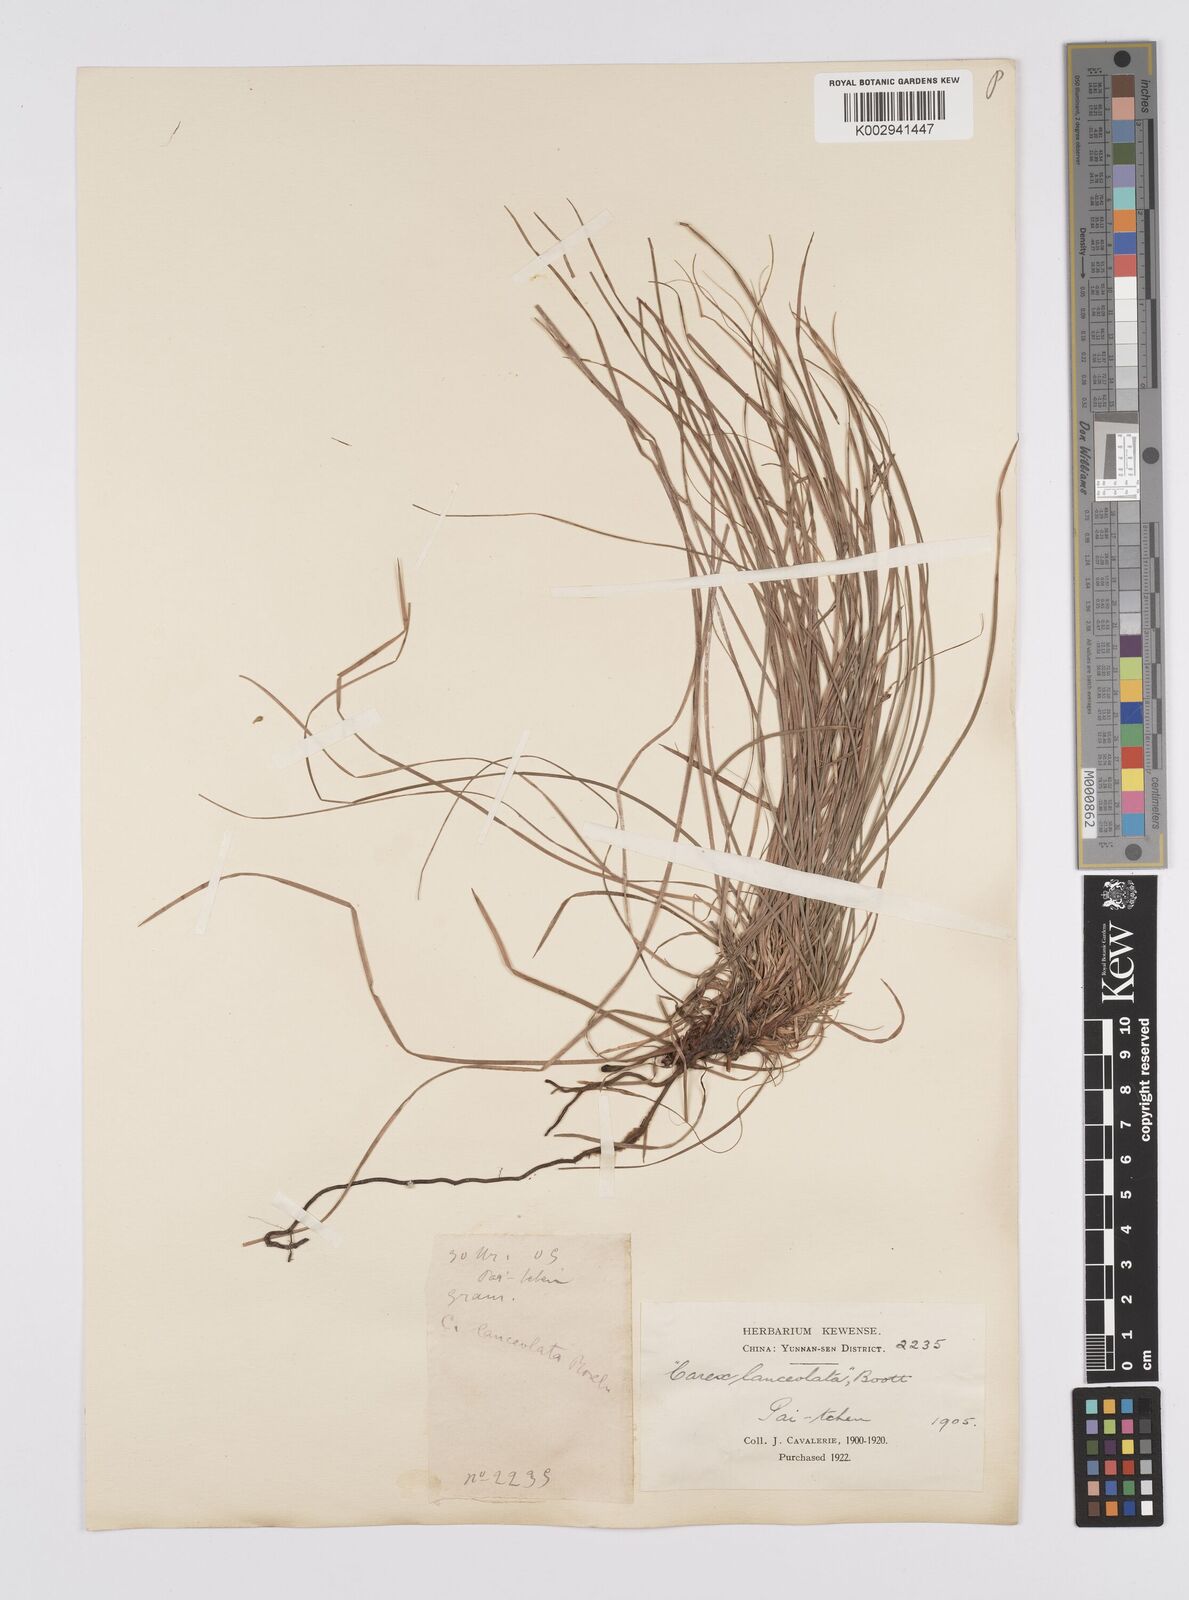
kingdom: Plantae
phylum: Tracheophyta
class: Liliopsida
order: Poales
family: Cyperaceae
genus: Carex
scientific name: Carex lanceolata
